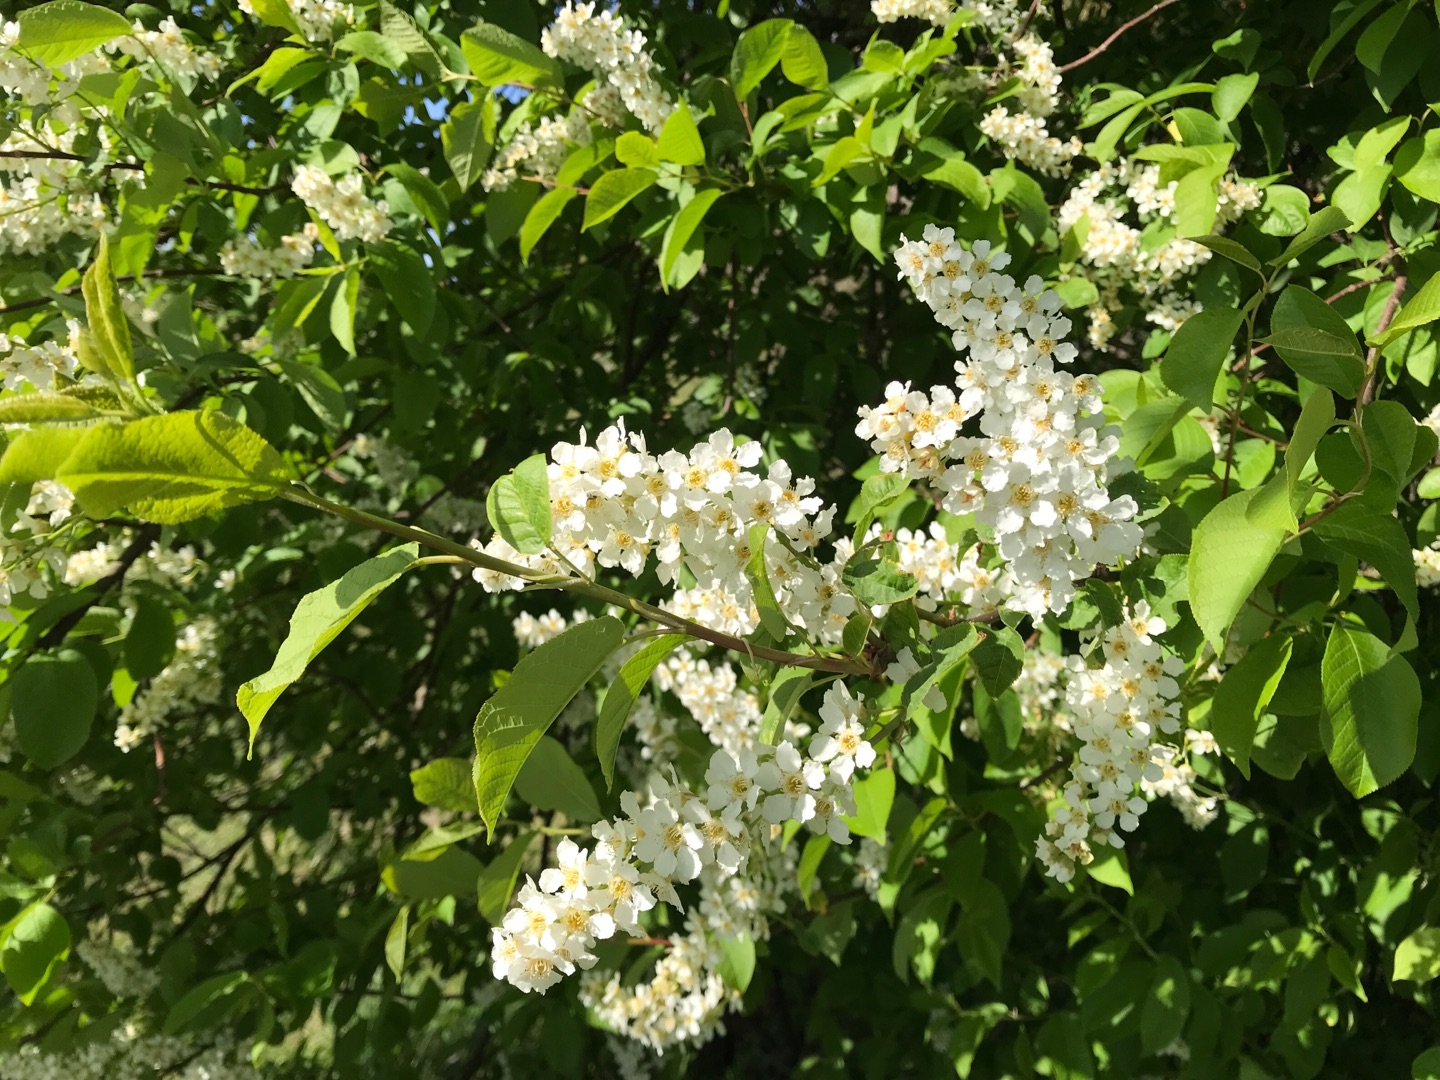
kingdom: Plantae
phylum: Tracheophyta
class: Magnoliopsida
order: Rosales
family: Rosaceae
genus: Prunus
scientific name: Prunus padus
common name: Almindelig hæg
